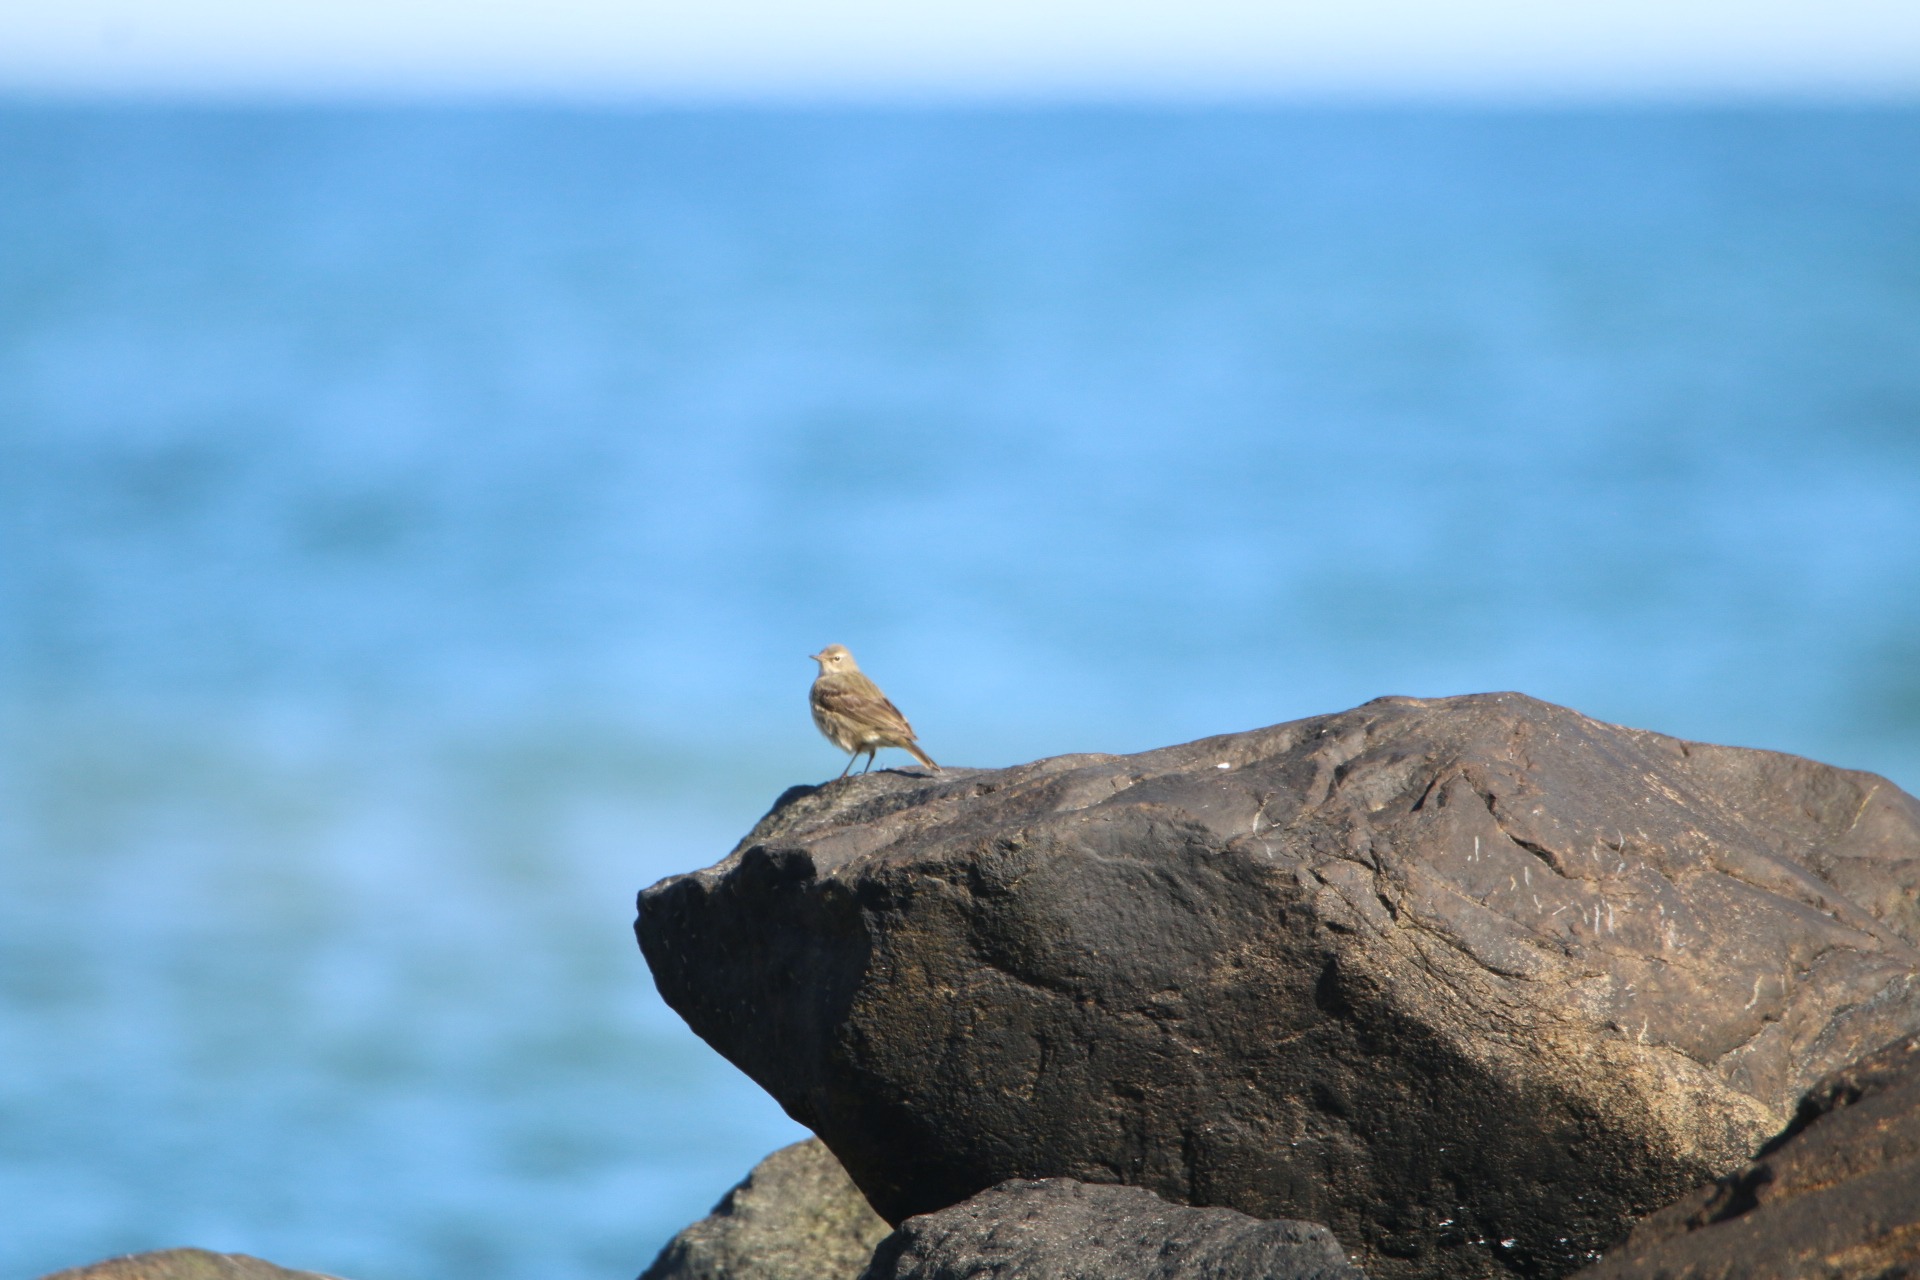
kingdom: Animalia
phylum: Chordata
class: Aves
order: Passeriformes
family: Motacillidae
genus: Anthus
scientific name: Anthus petrosus
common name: Skærpiber
